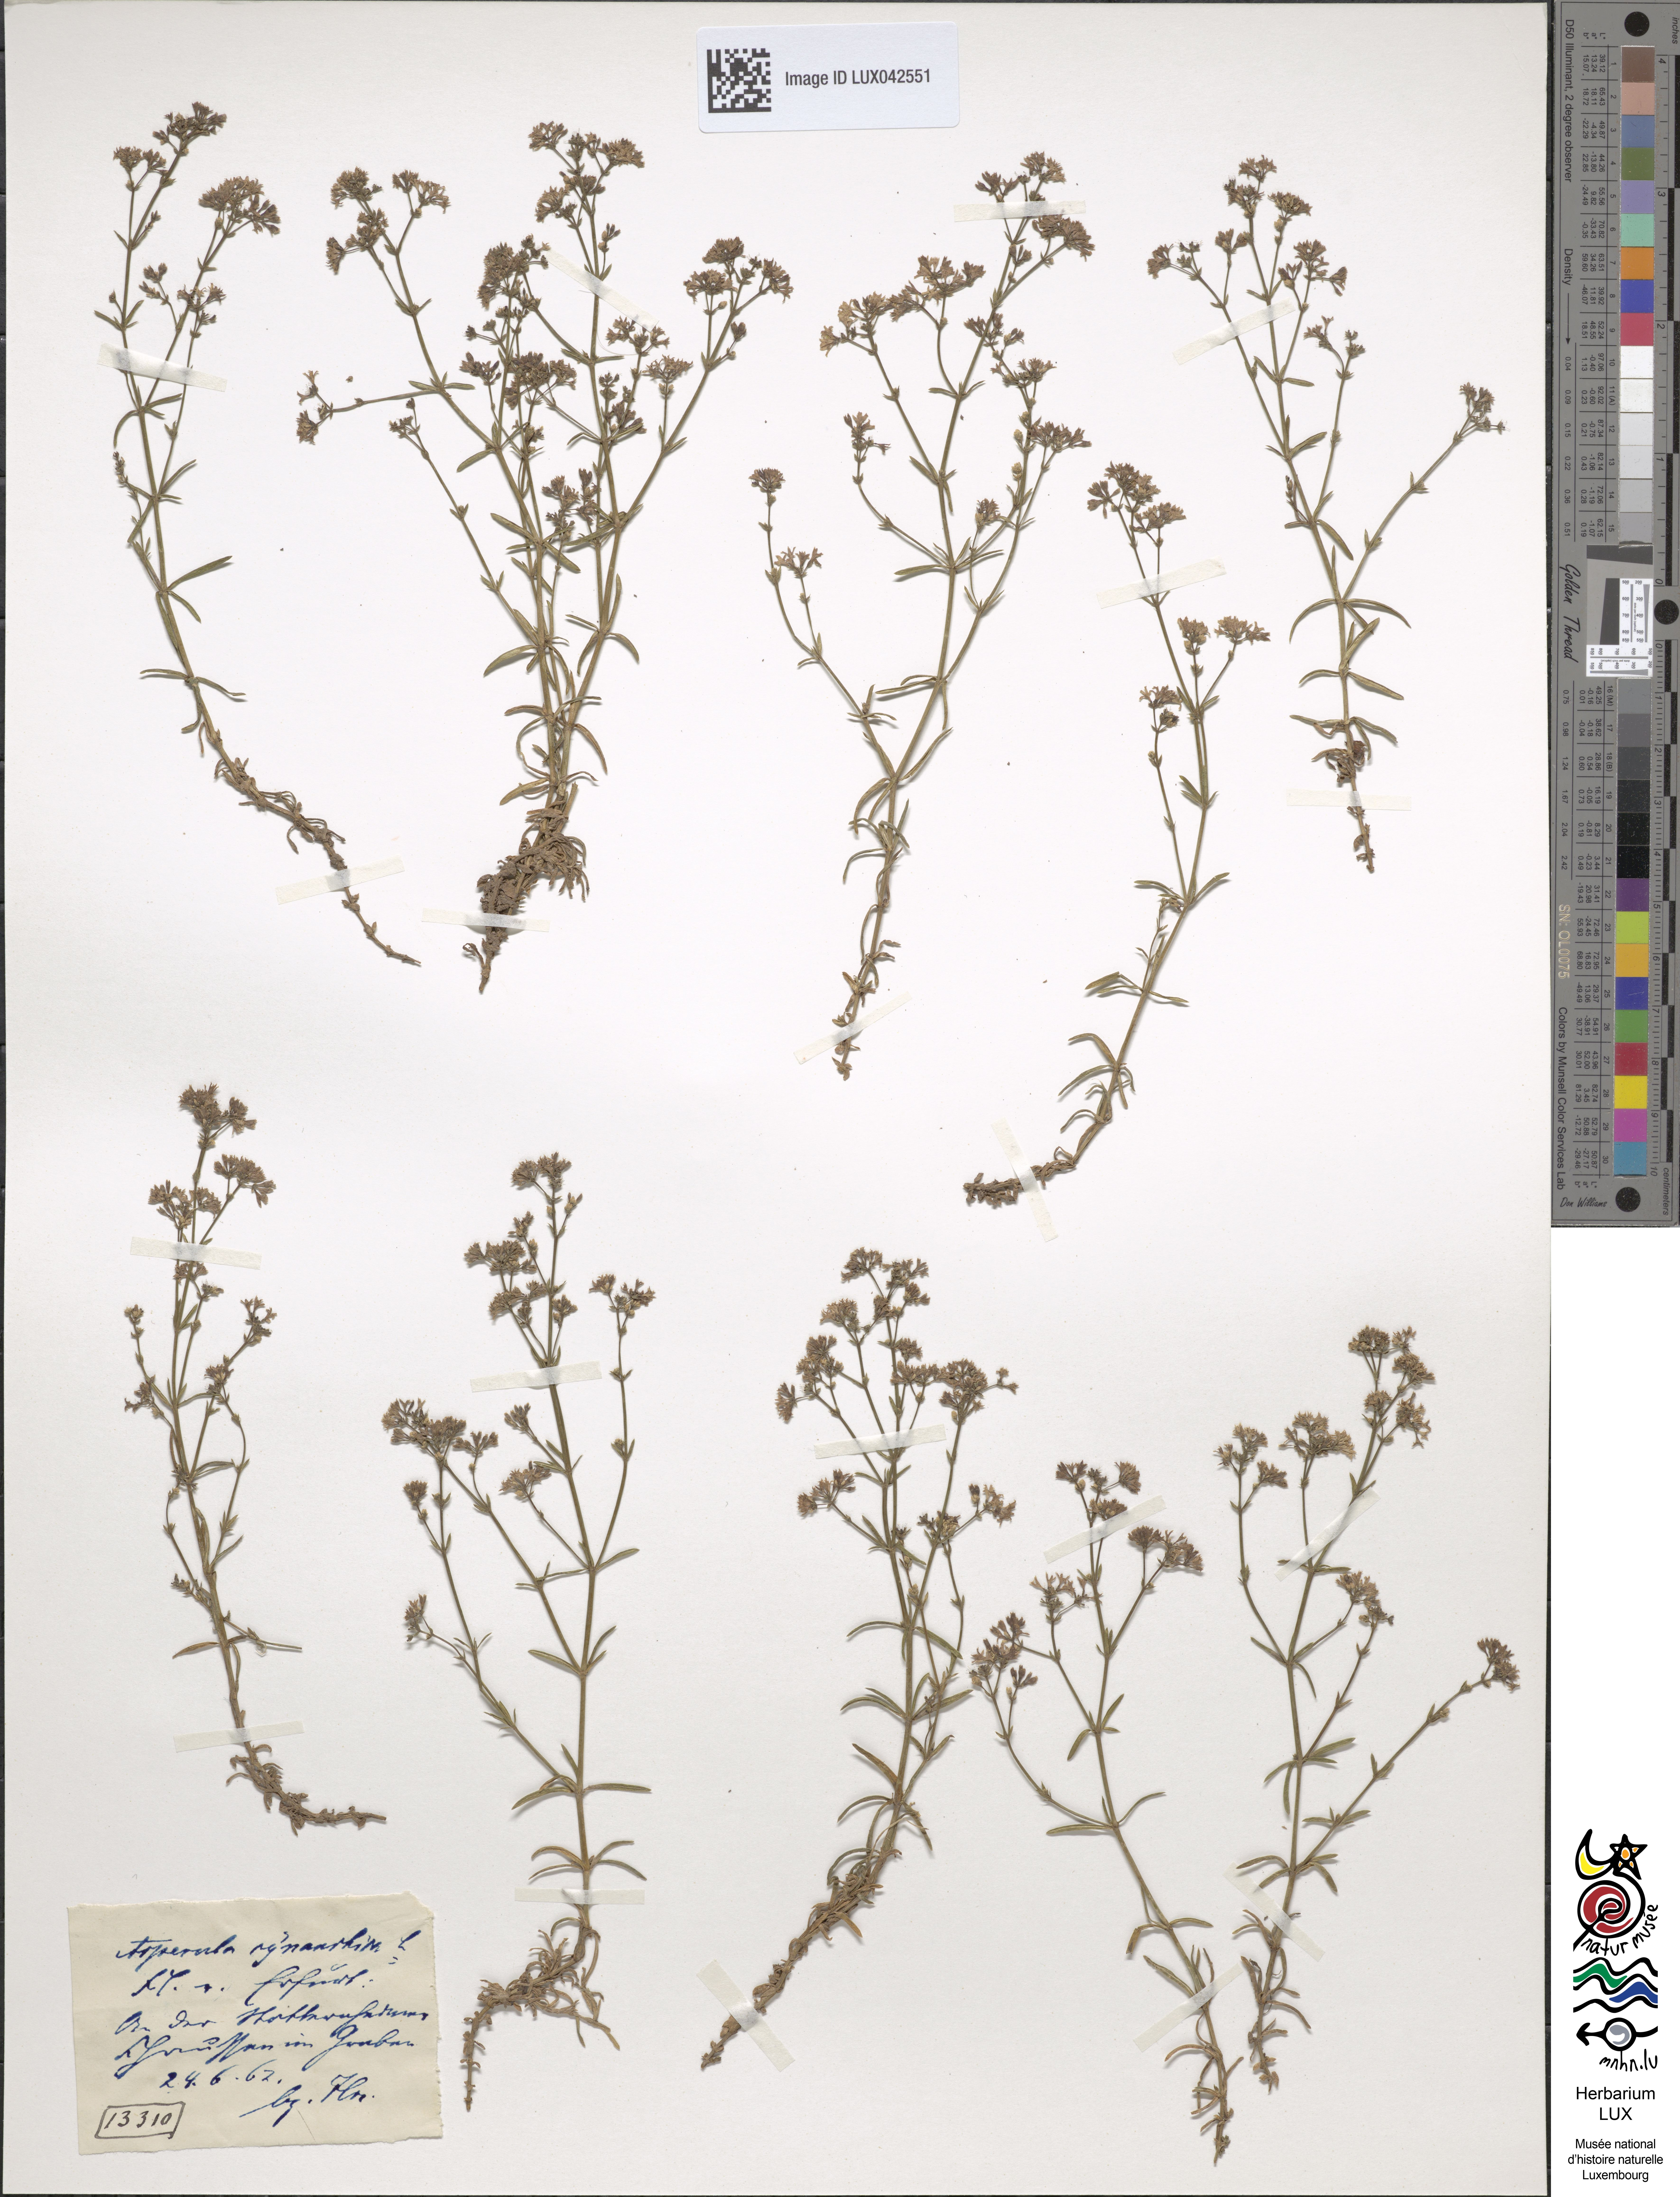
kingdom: Plantae
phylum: Tracheophyta
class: Magnoliopsida
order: Gentianales
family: Rubiaceae
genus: Cynanchica
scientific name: Cynanchica pyrenaica
